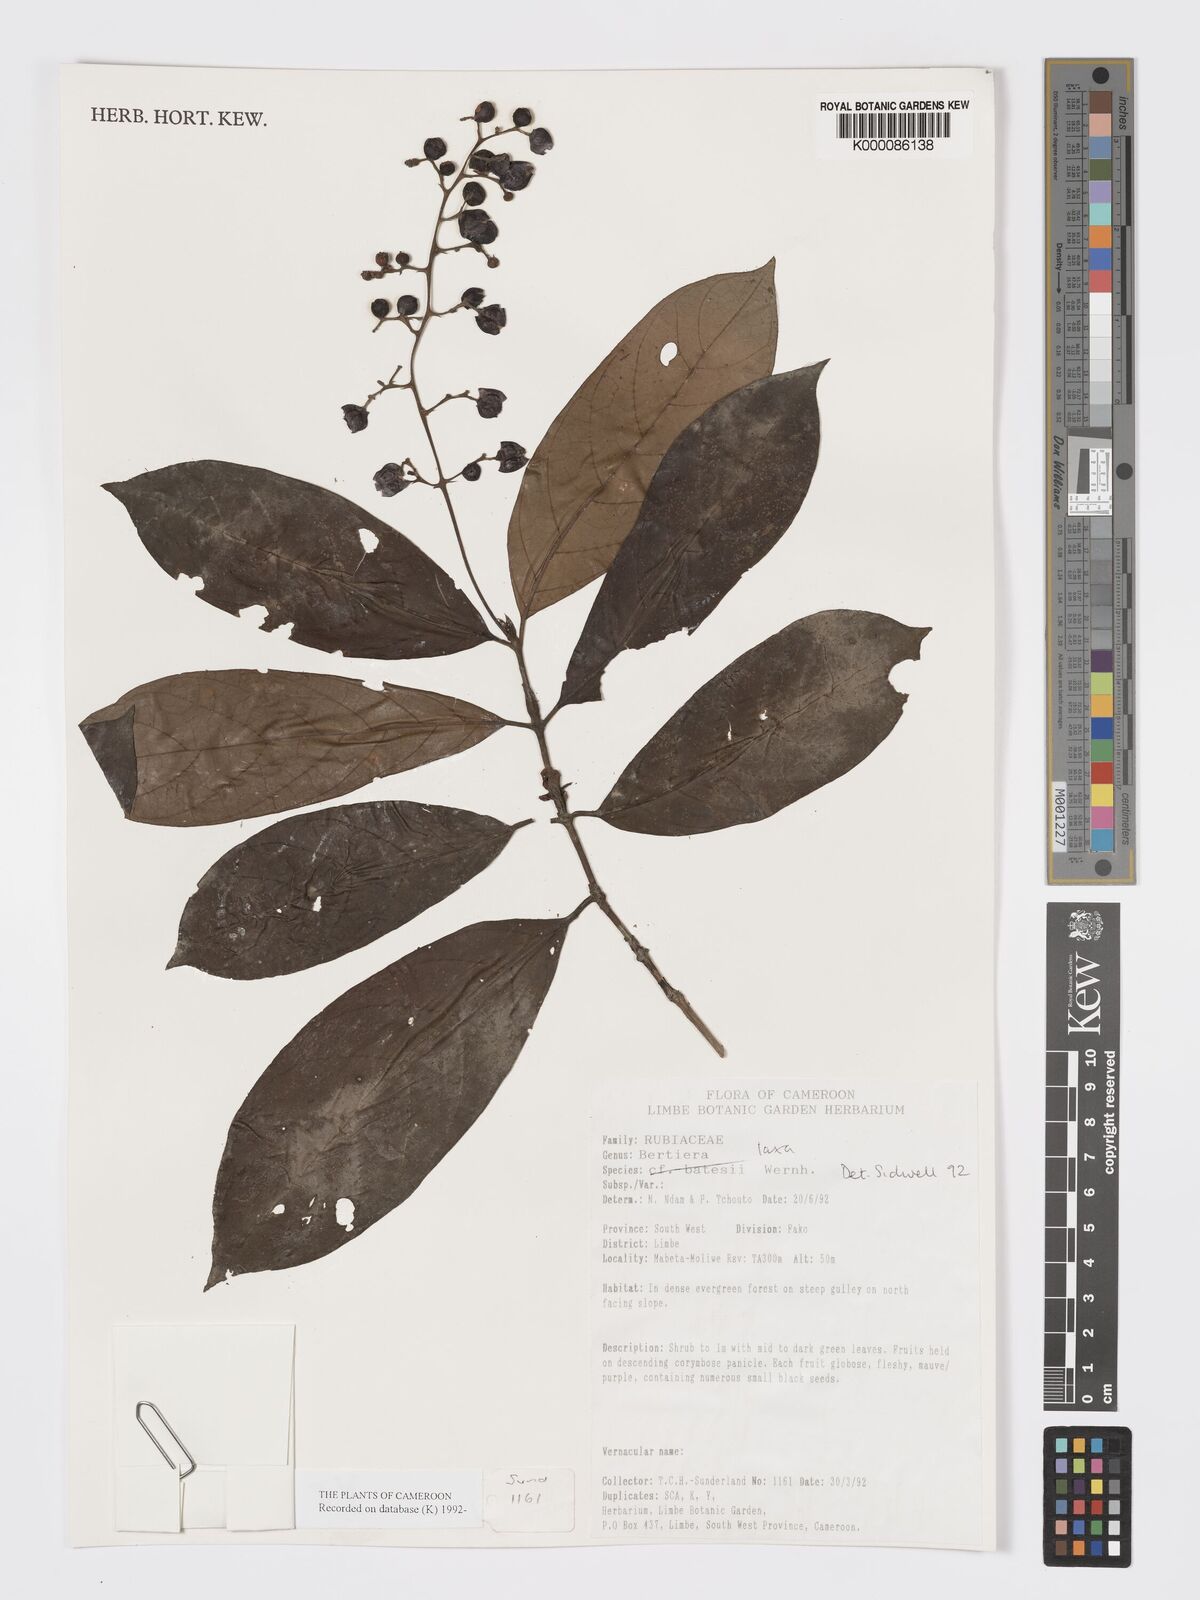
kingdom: Plantae
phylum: Tracheophyta
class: Magnoliopsida
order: Gentianales
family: Rubiaceae
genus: Bertiera
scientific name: Bertiera laxa
